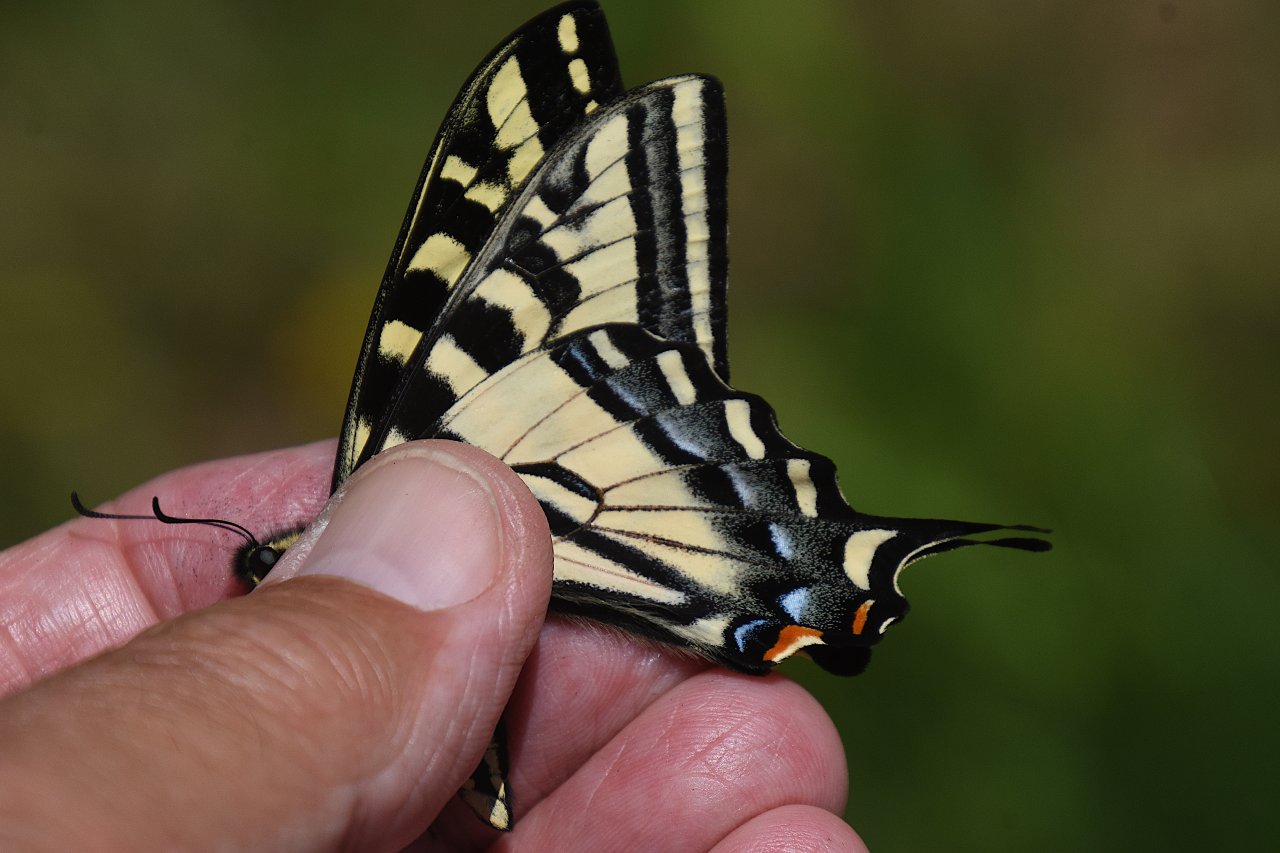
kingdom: Animalia
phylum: Arthropoda
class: Insecta
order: Lepidoptera
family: Papilionidae
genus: Pterourus
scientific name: Pterourus rutulus
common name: Western Tiger Swallowtail
